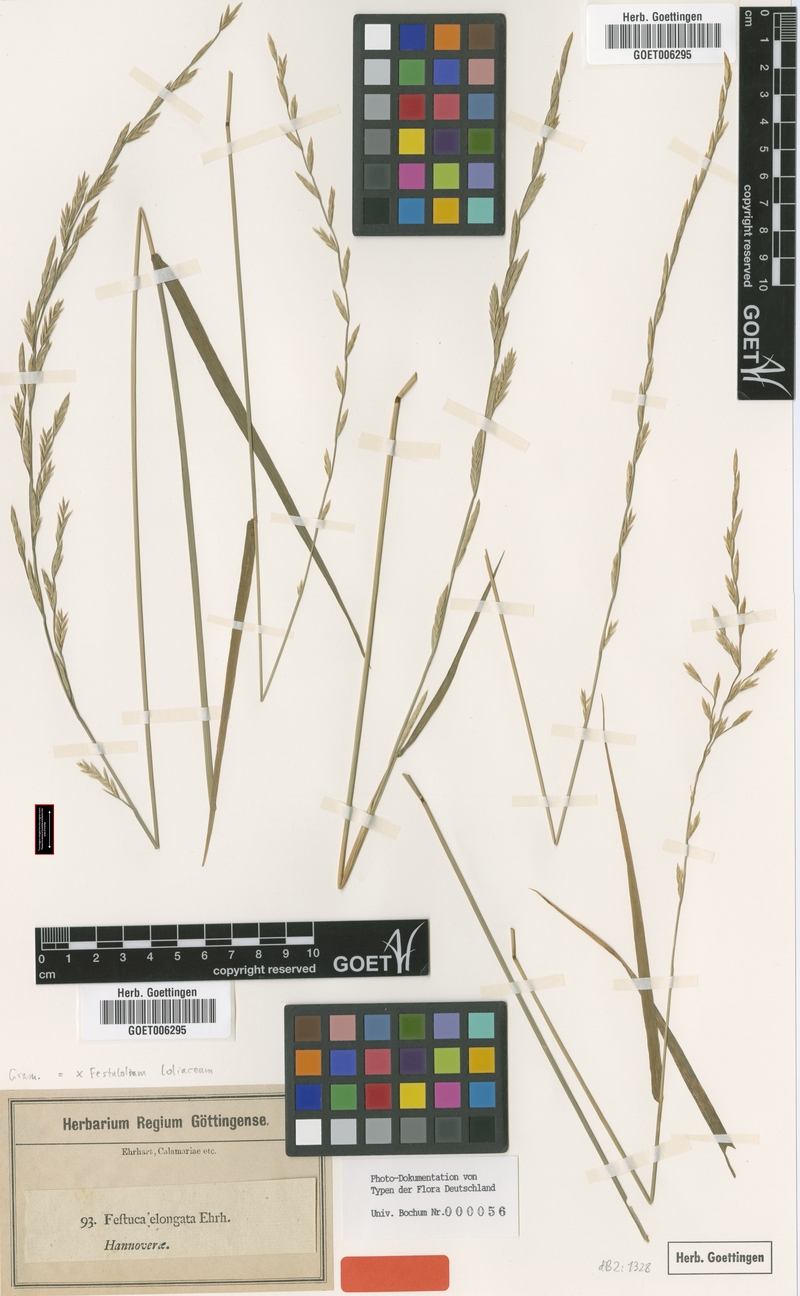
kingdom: Plantae
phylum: Tracheophyta
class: Liliopsida
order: Poales
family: Poaceae
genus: Lolium
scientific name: Lolium elongatum
